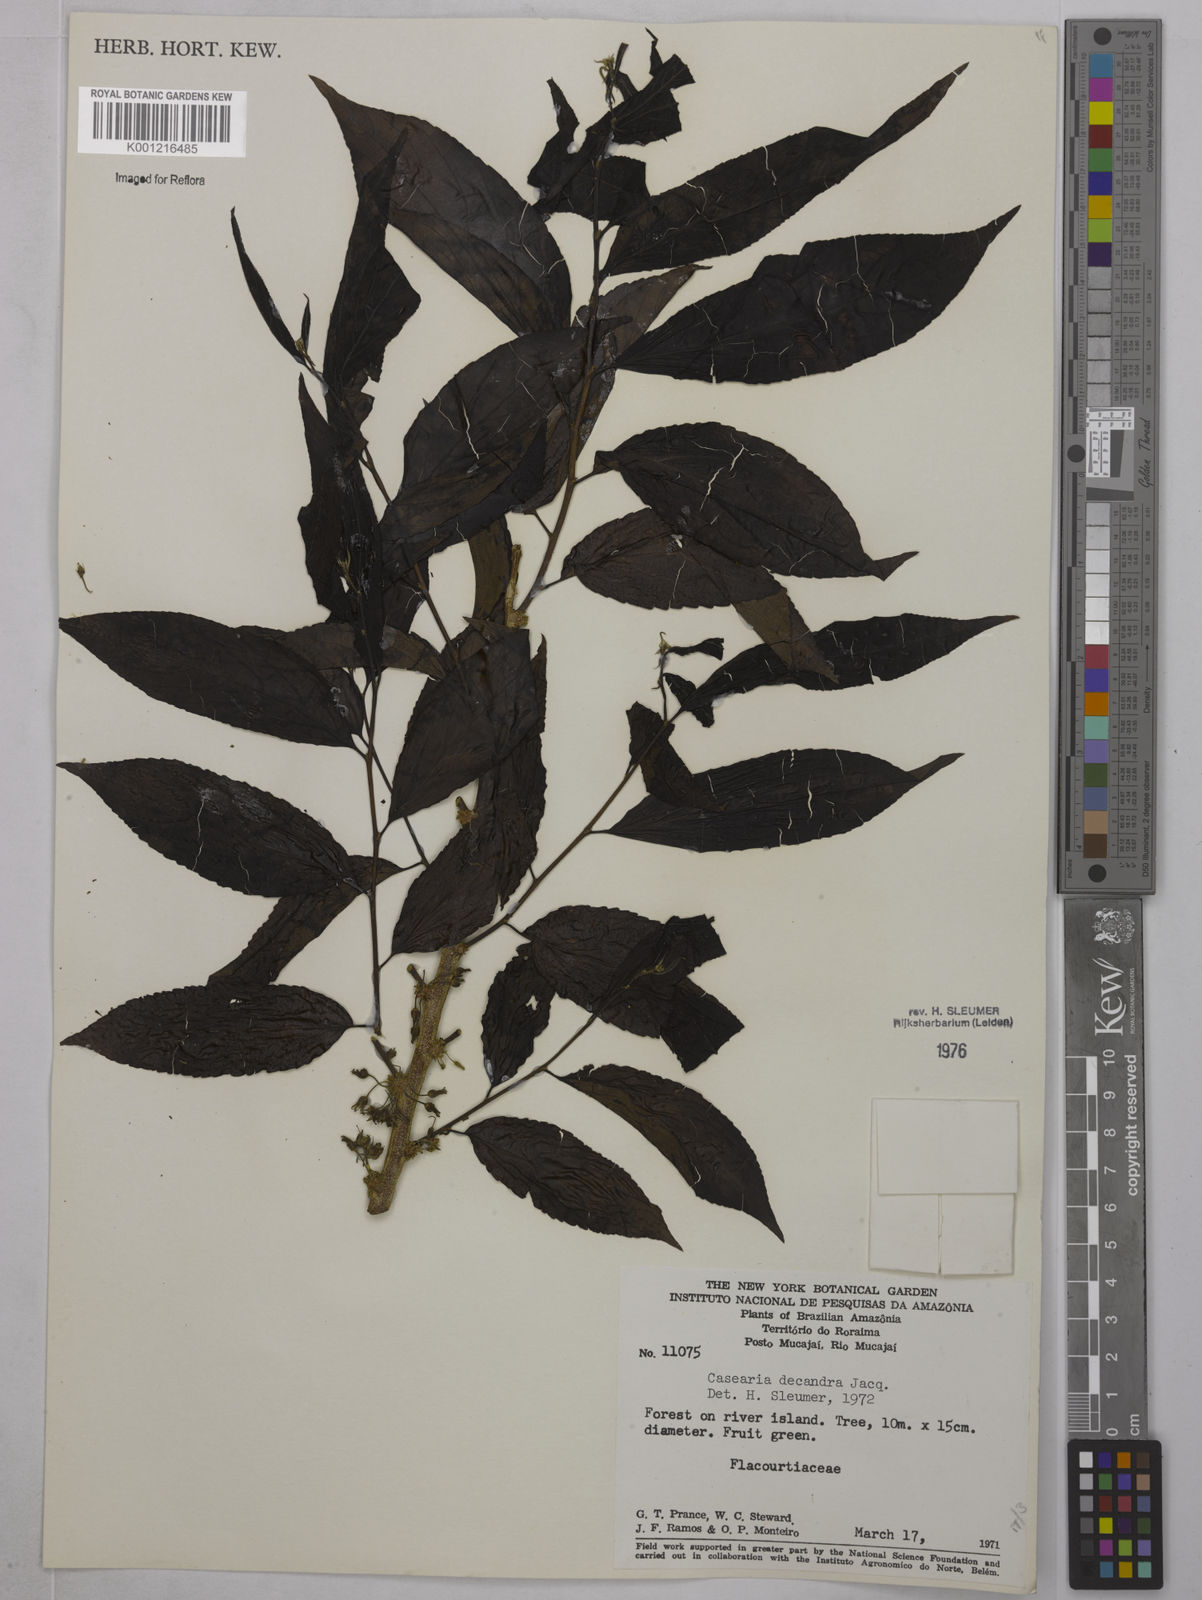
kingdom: Plantae
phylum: Tracheophyta
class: Magnoliopsida
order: Malpighiales
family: Salicaceae
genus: Casearia
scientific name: Casearia decandra
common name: Crack open
